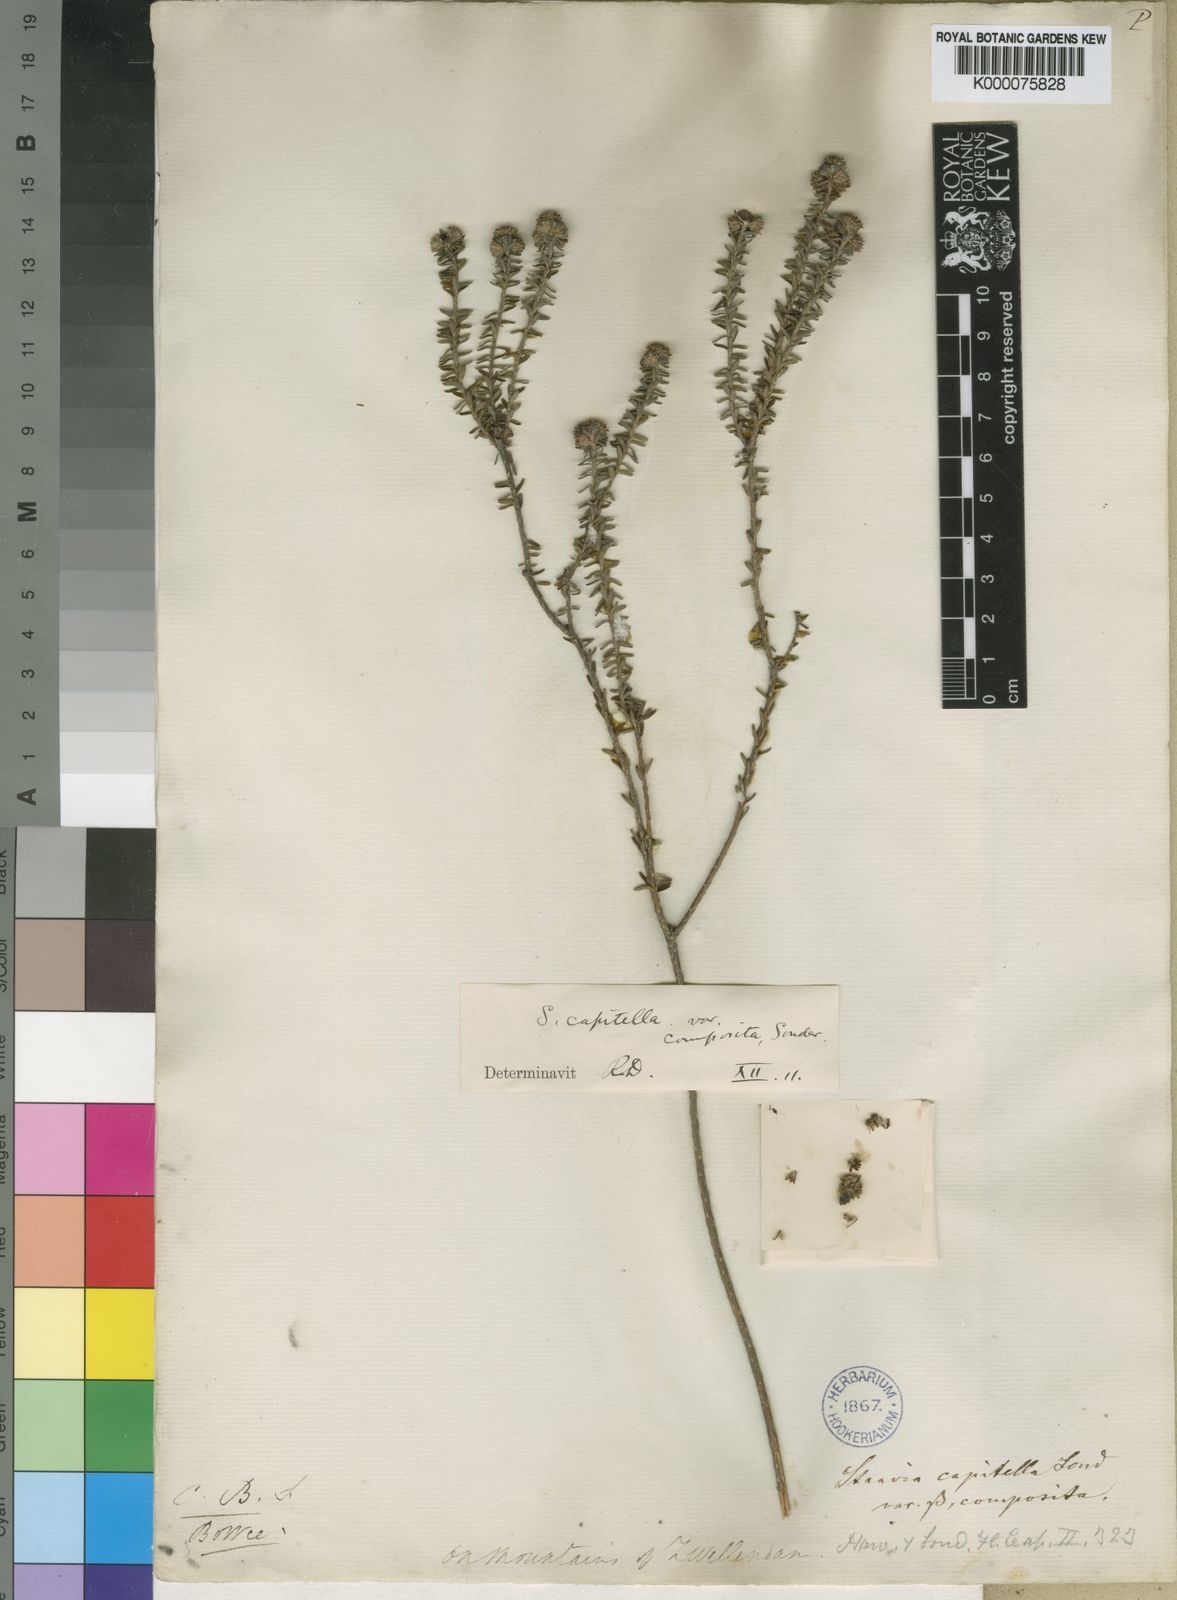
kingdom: Plantae
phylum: Tracheophyta
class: Magnoliopsida
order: Bruniales
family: Bruniaceae
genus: Staavia
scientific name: Staavia capitella
